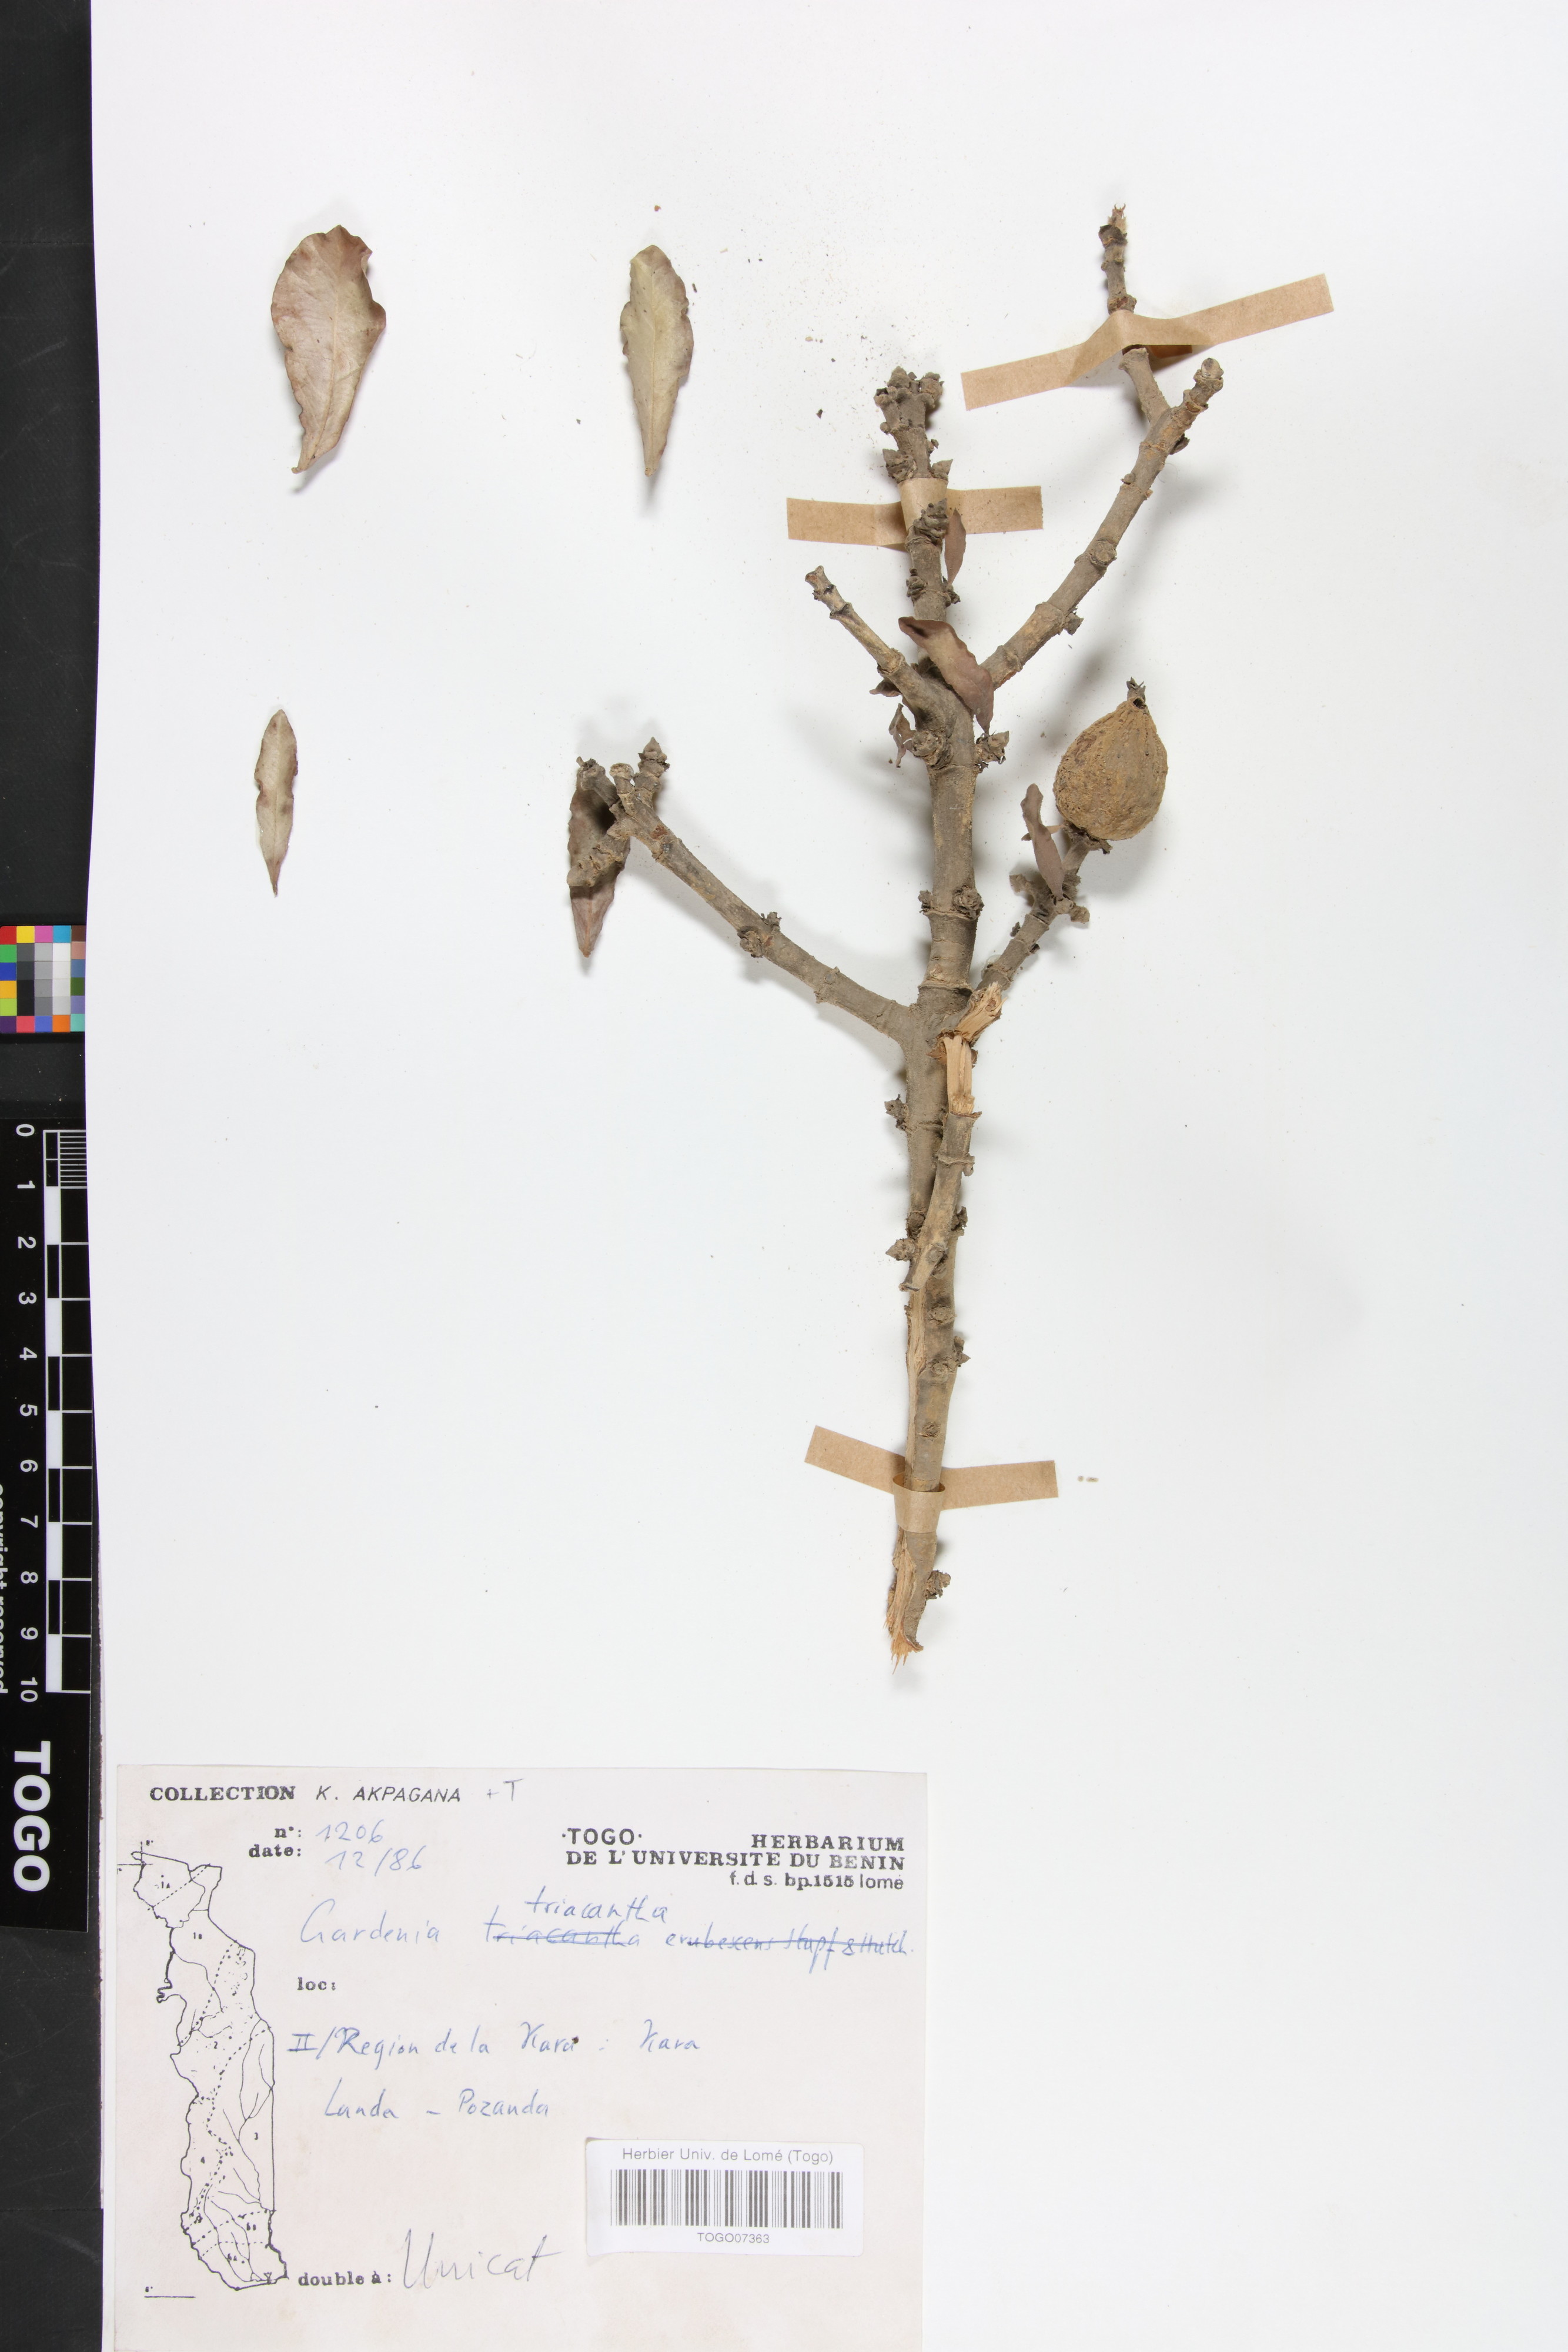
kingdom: Plantae
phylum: Tracheophyta
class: Magnoliopsida
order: Gentianales
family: Rubiaceae
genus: Gardenia
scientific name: Gardenia ternifolia
